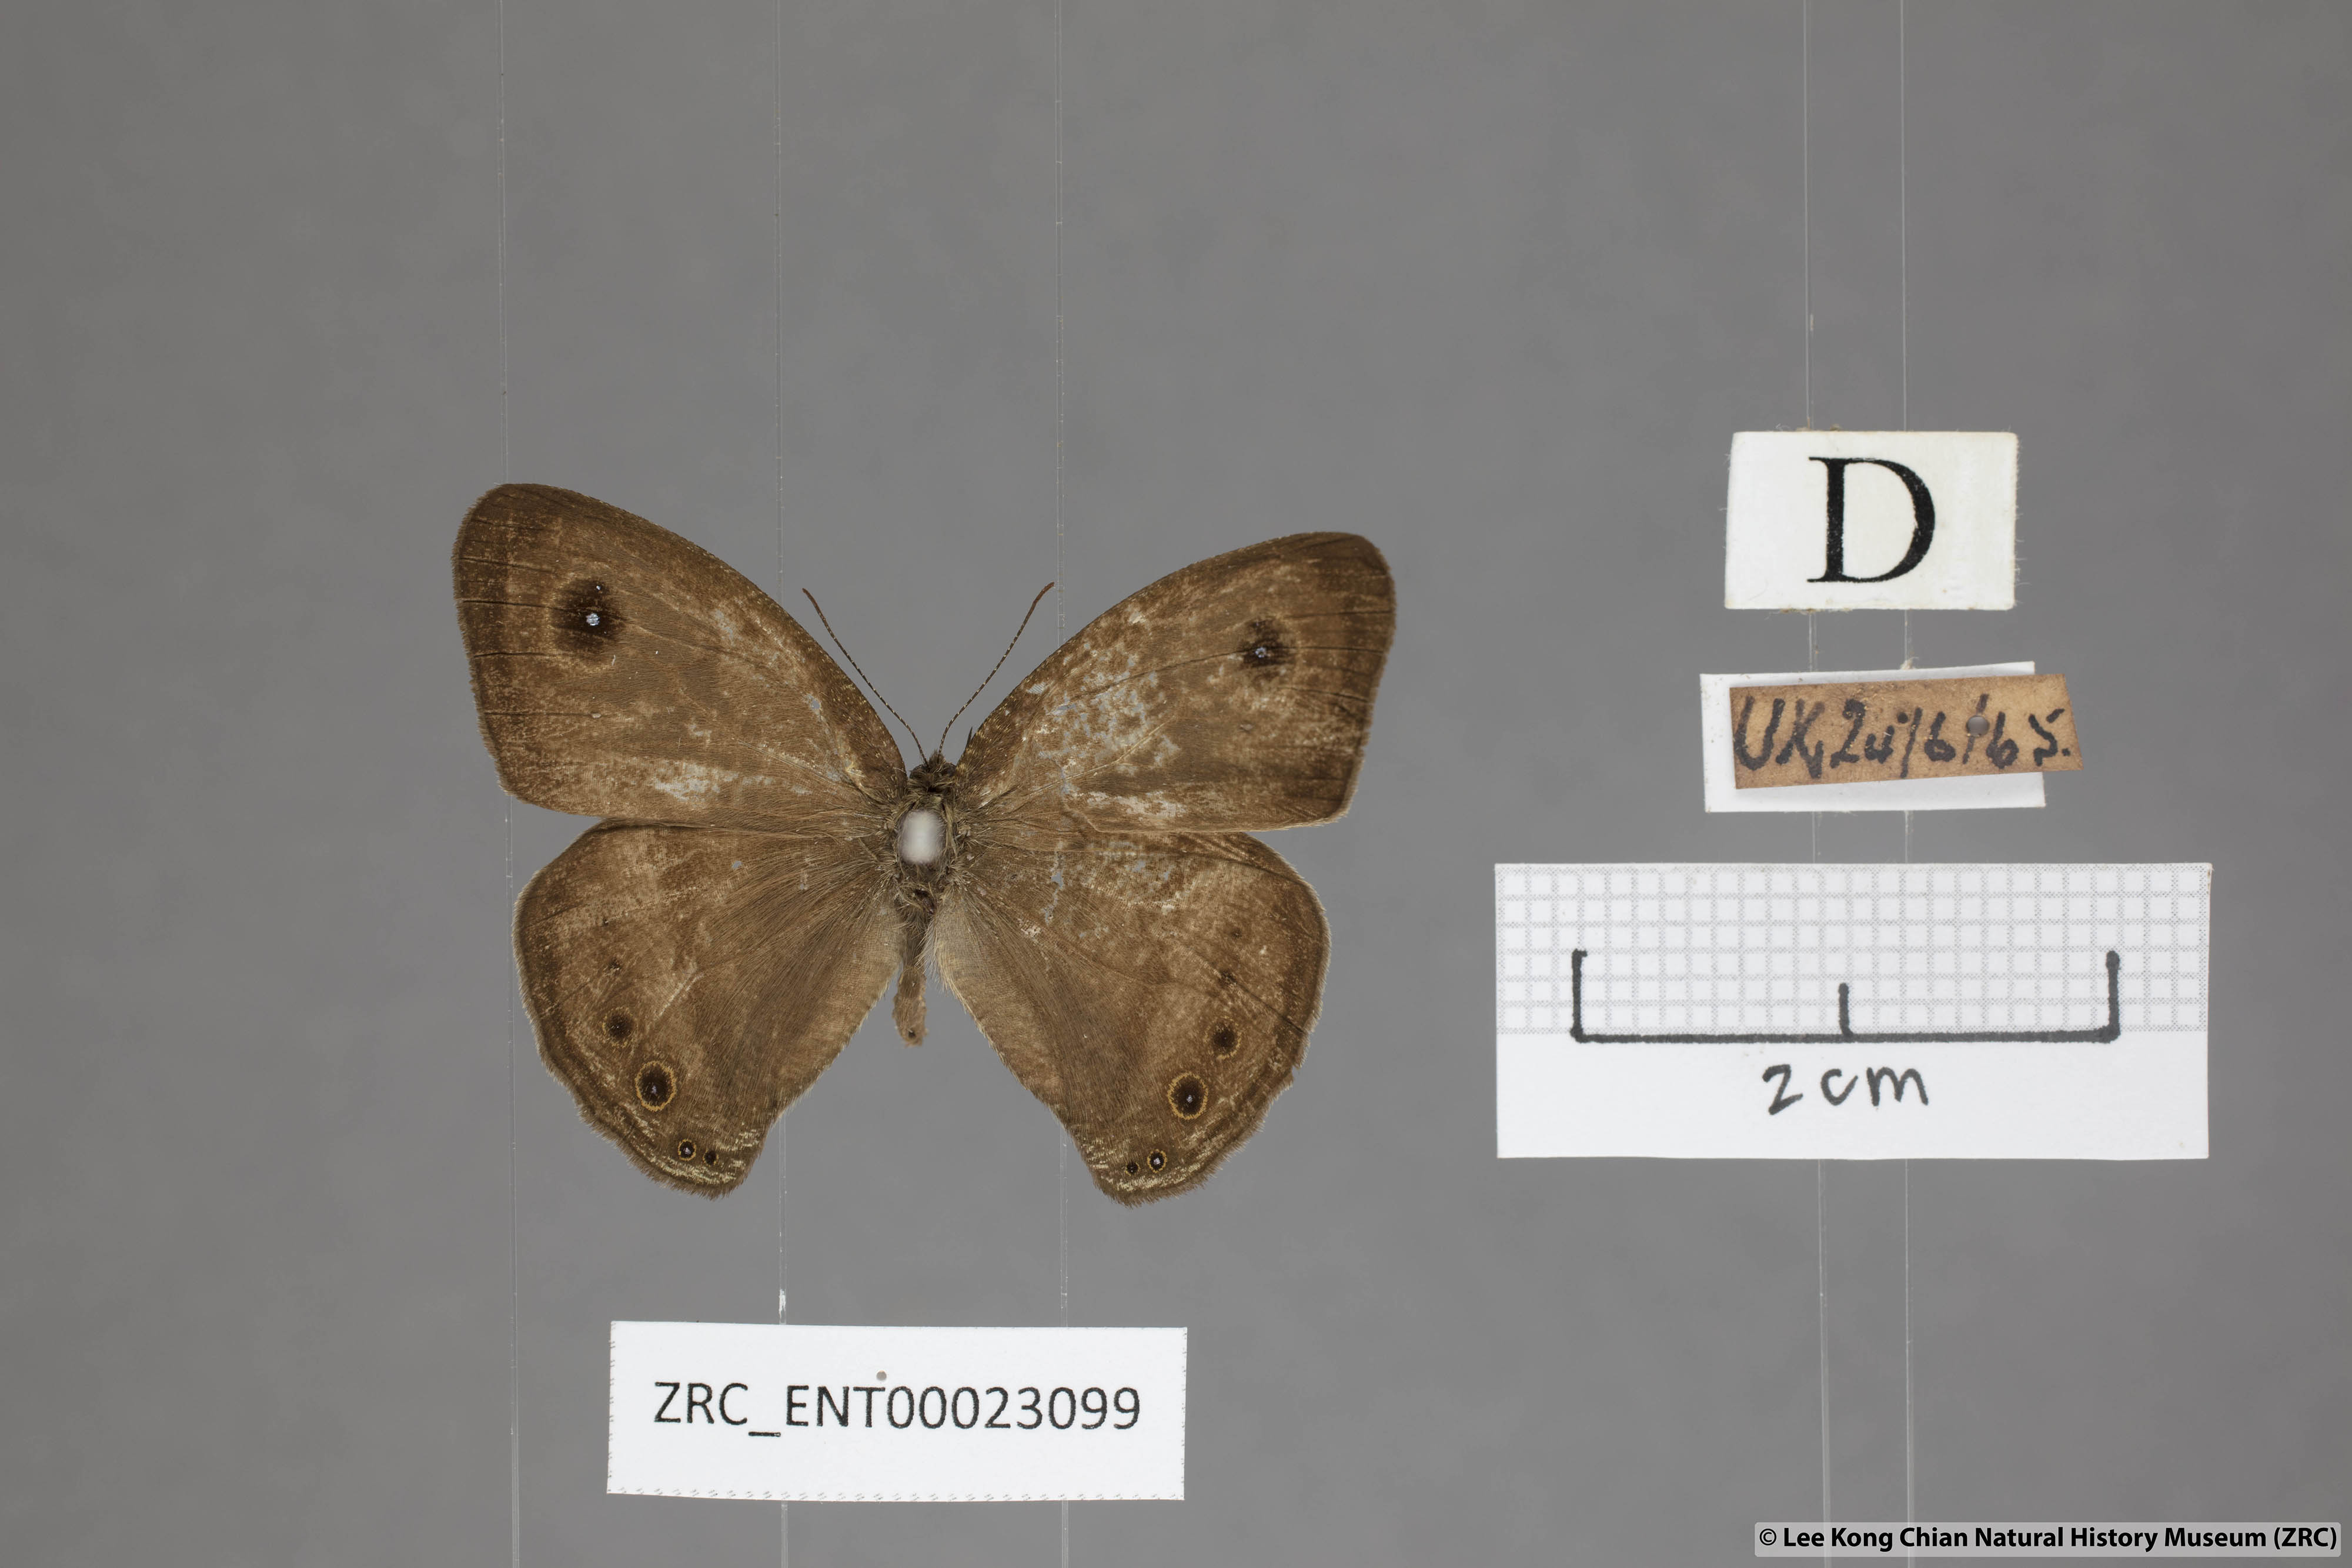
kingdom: Animalia
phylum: Arthropoda
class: Insecta
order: Lepidoptera
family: Nymphalidae
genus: Ypthima
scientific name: Ypthima fasciata
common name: Malayan six-ring
